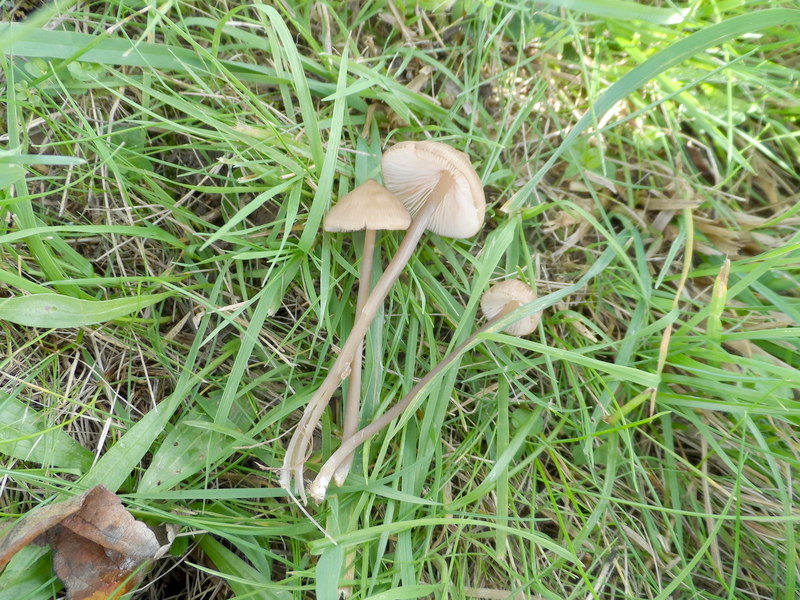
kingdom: Fungi
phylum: Basidiomycota
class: Agaricomycetes
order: Agaricales
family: Entolomataceae
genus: Entoloma
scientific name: Entoloma infula
